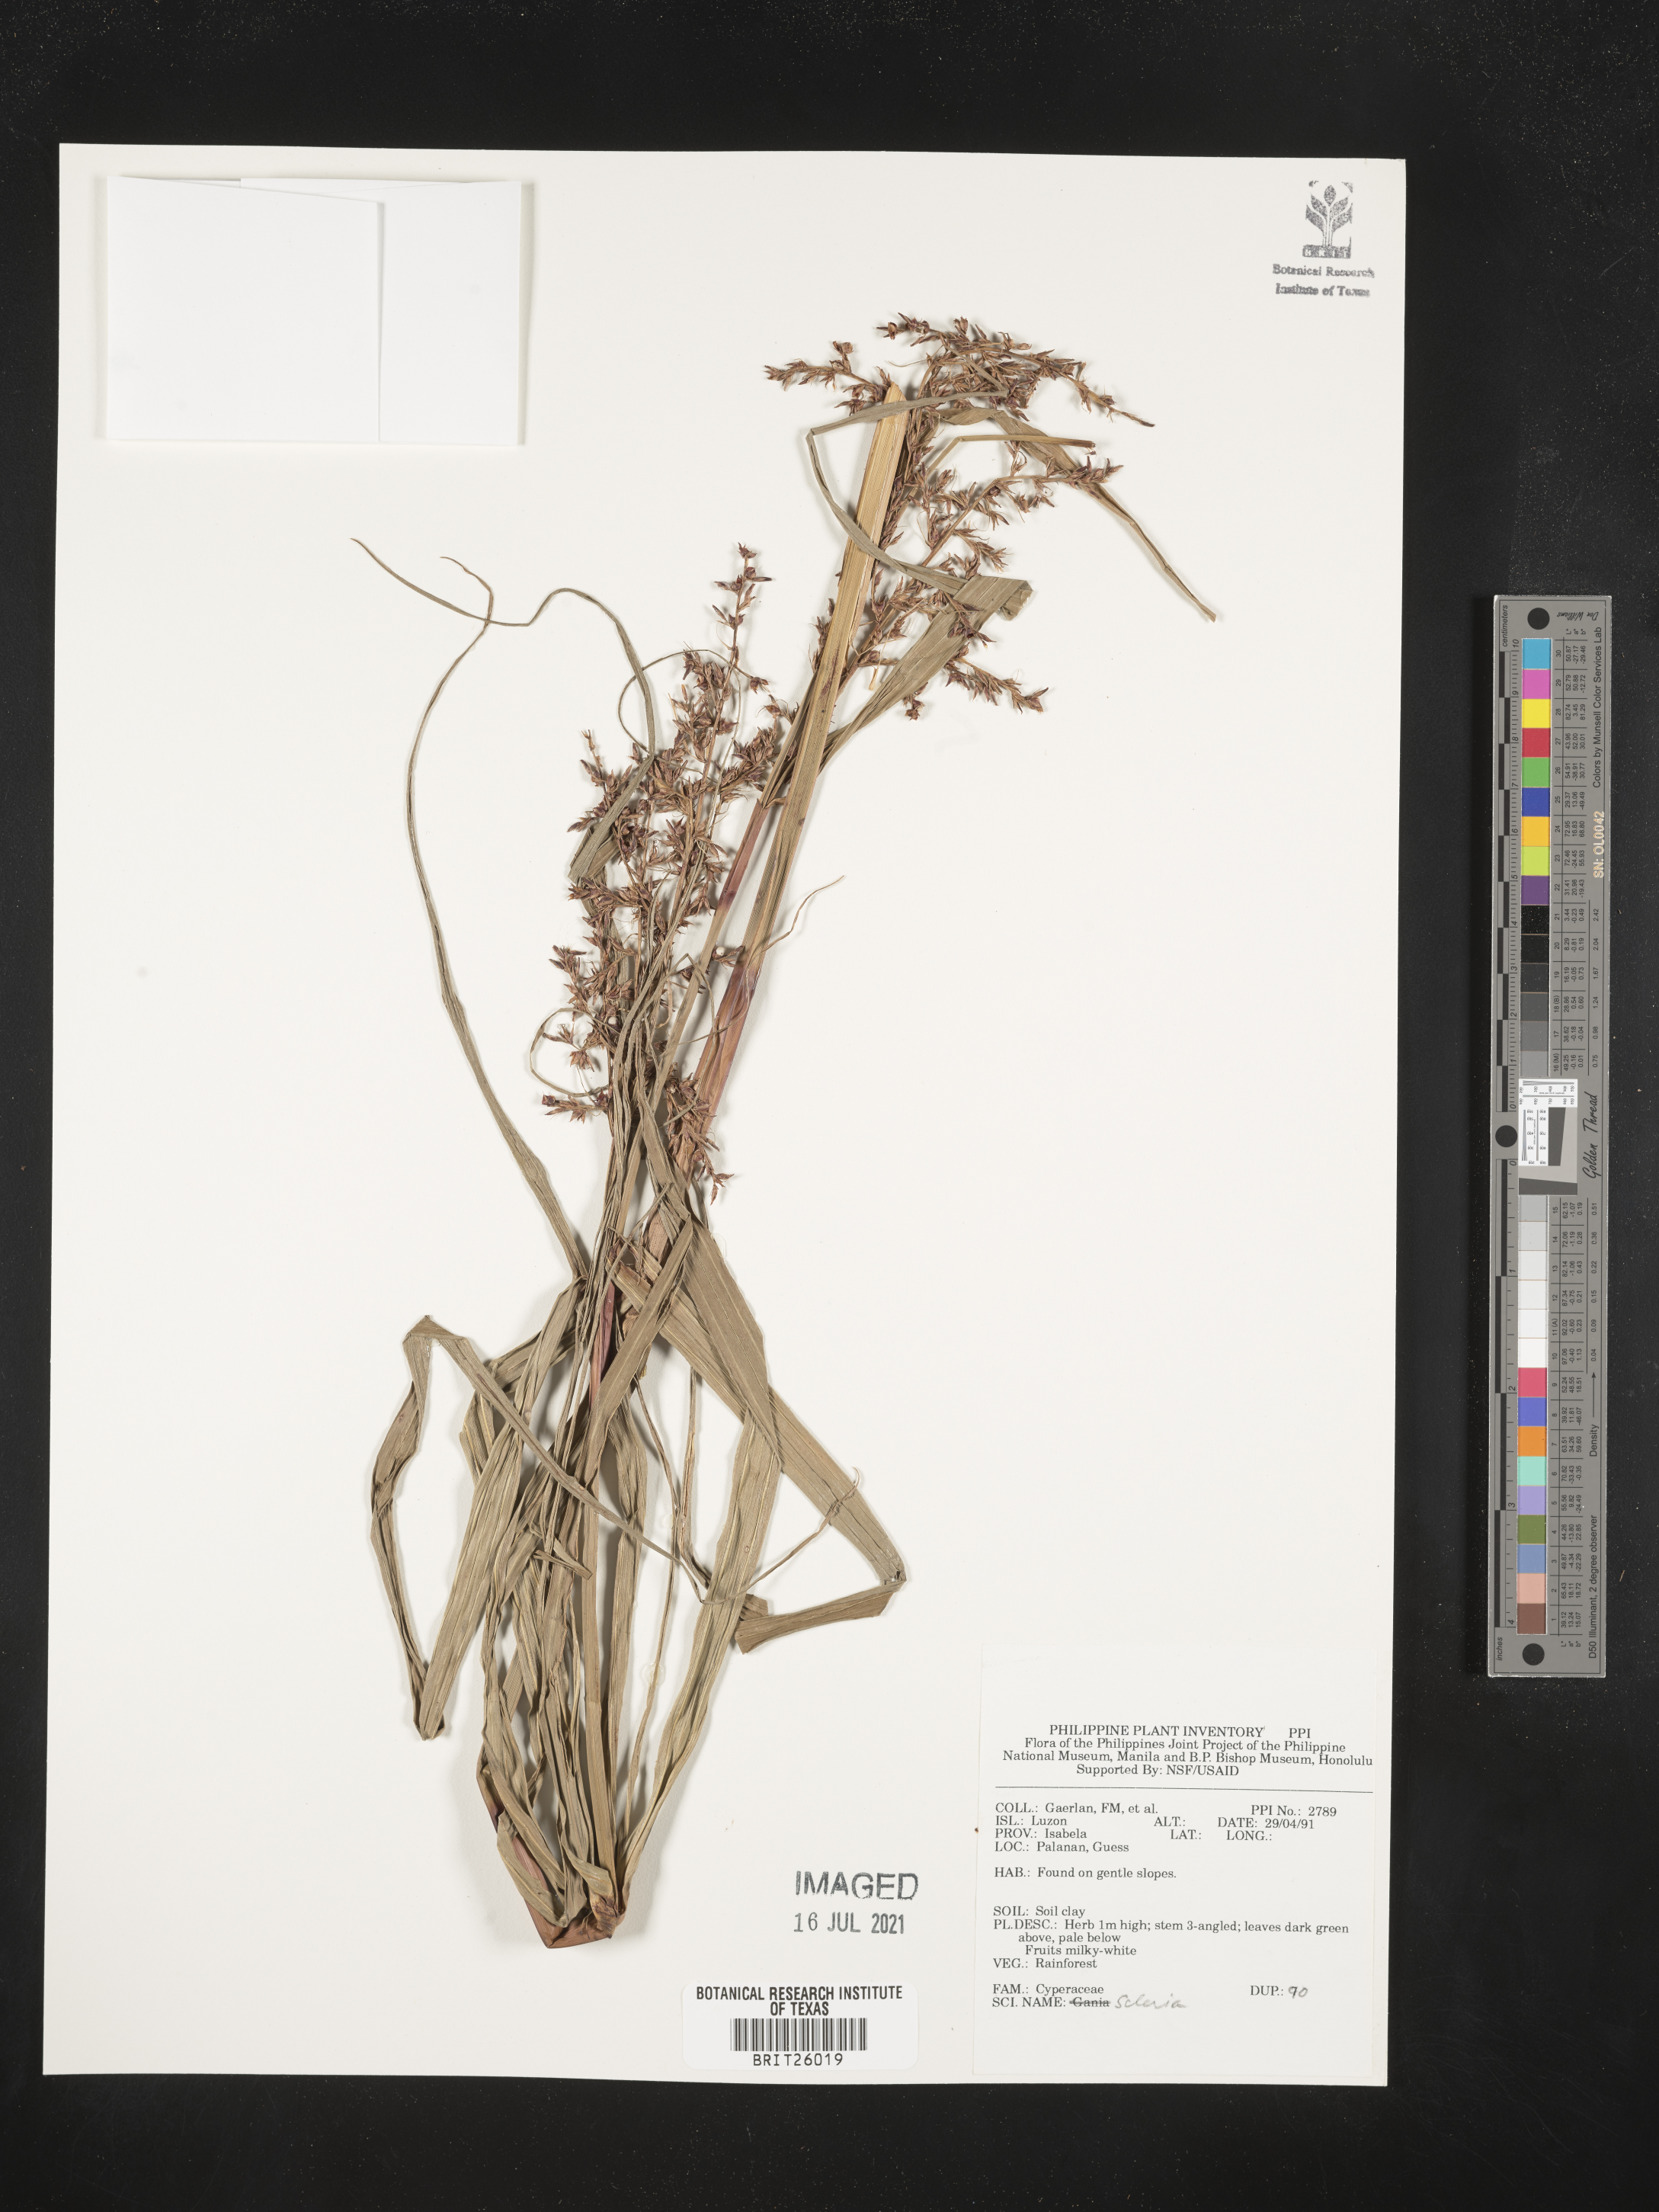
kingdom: Plantae
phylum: Tracheophyta
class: Liliopsida
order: Poales
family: Cyperaceae
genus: Scleria
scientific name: Scleria
